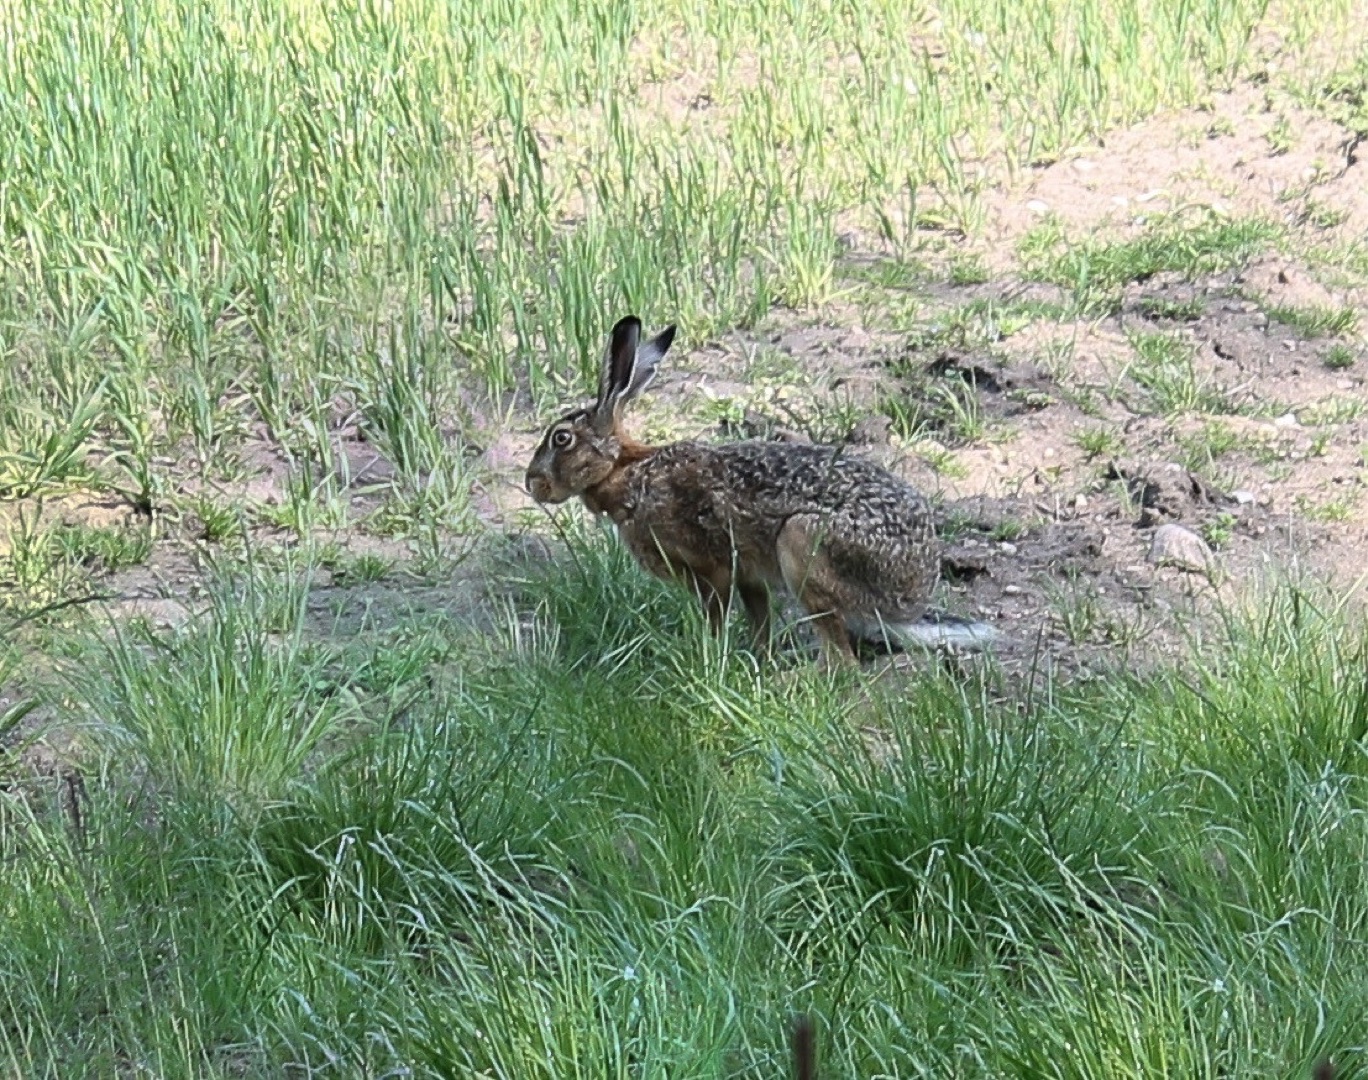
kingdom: Animalia
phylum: Chordata
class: Mammalia
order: Lagomorpha
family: Leporidae
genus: Lepus
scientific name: Lepus europaeus
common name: Hare
